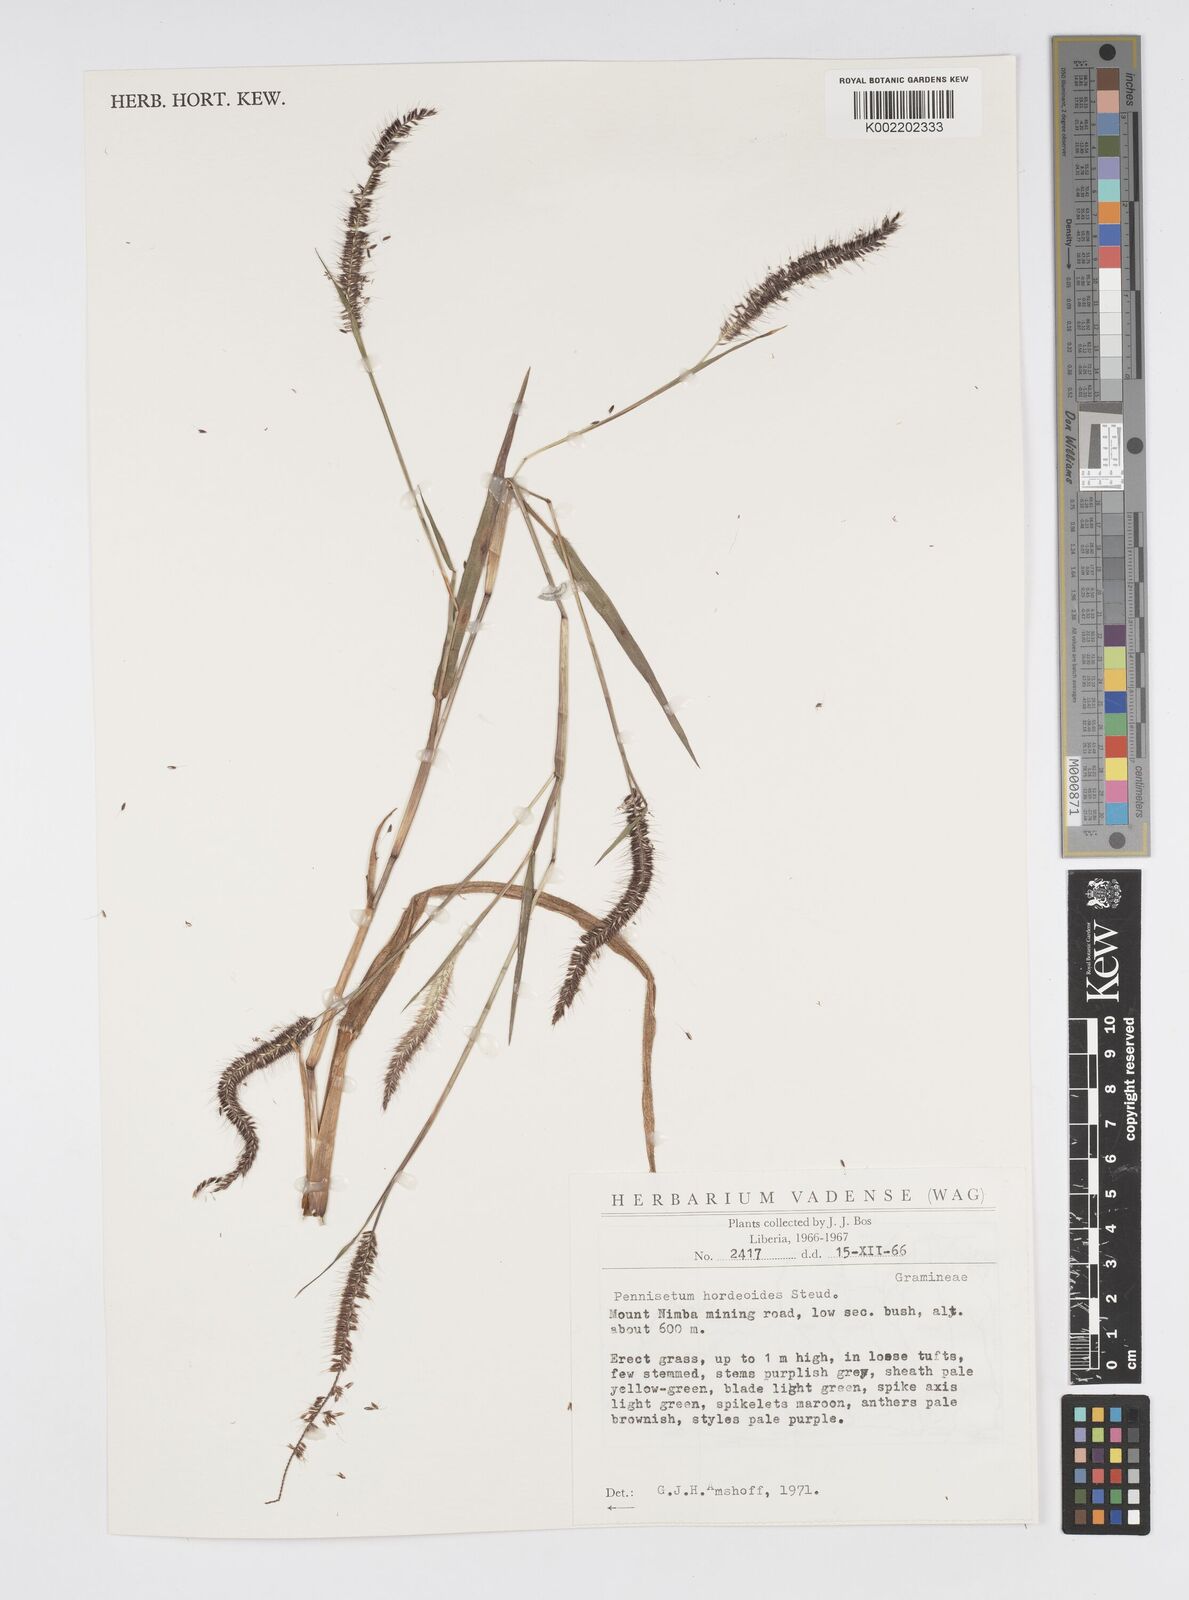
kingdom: Plantae
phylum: Tracheophyta
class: Liliopsida
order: Poales
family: Poaceae
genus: Cenchrus
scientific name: Cenchrus hordeoides
